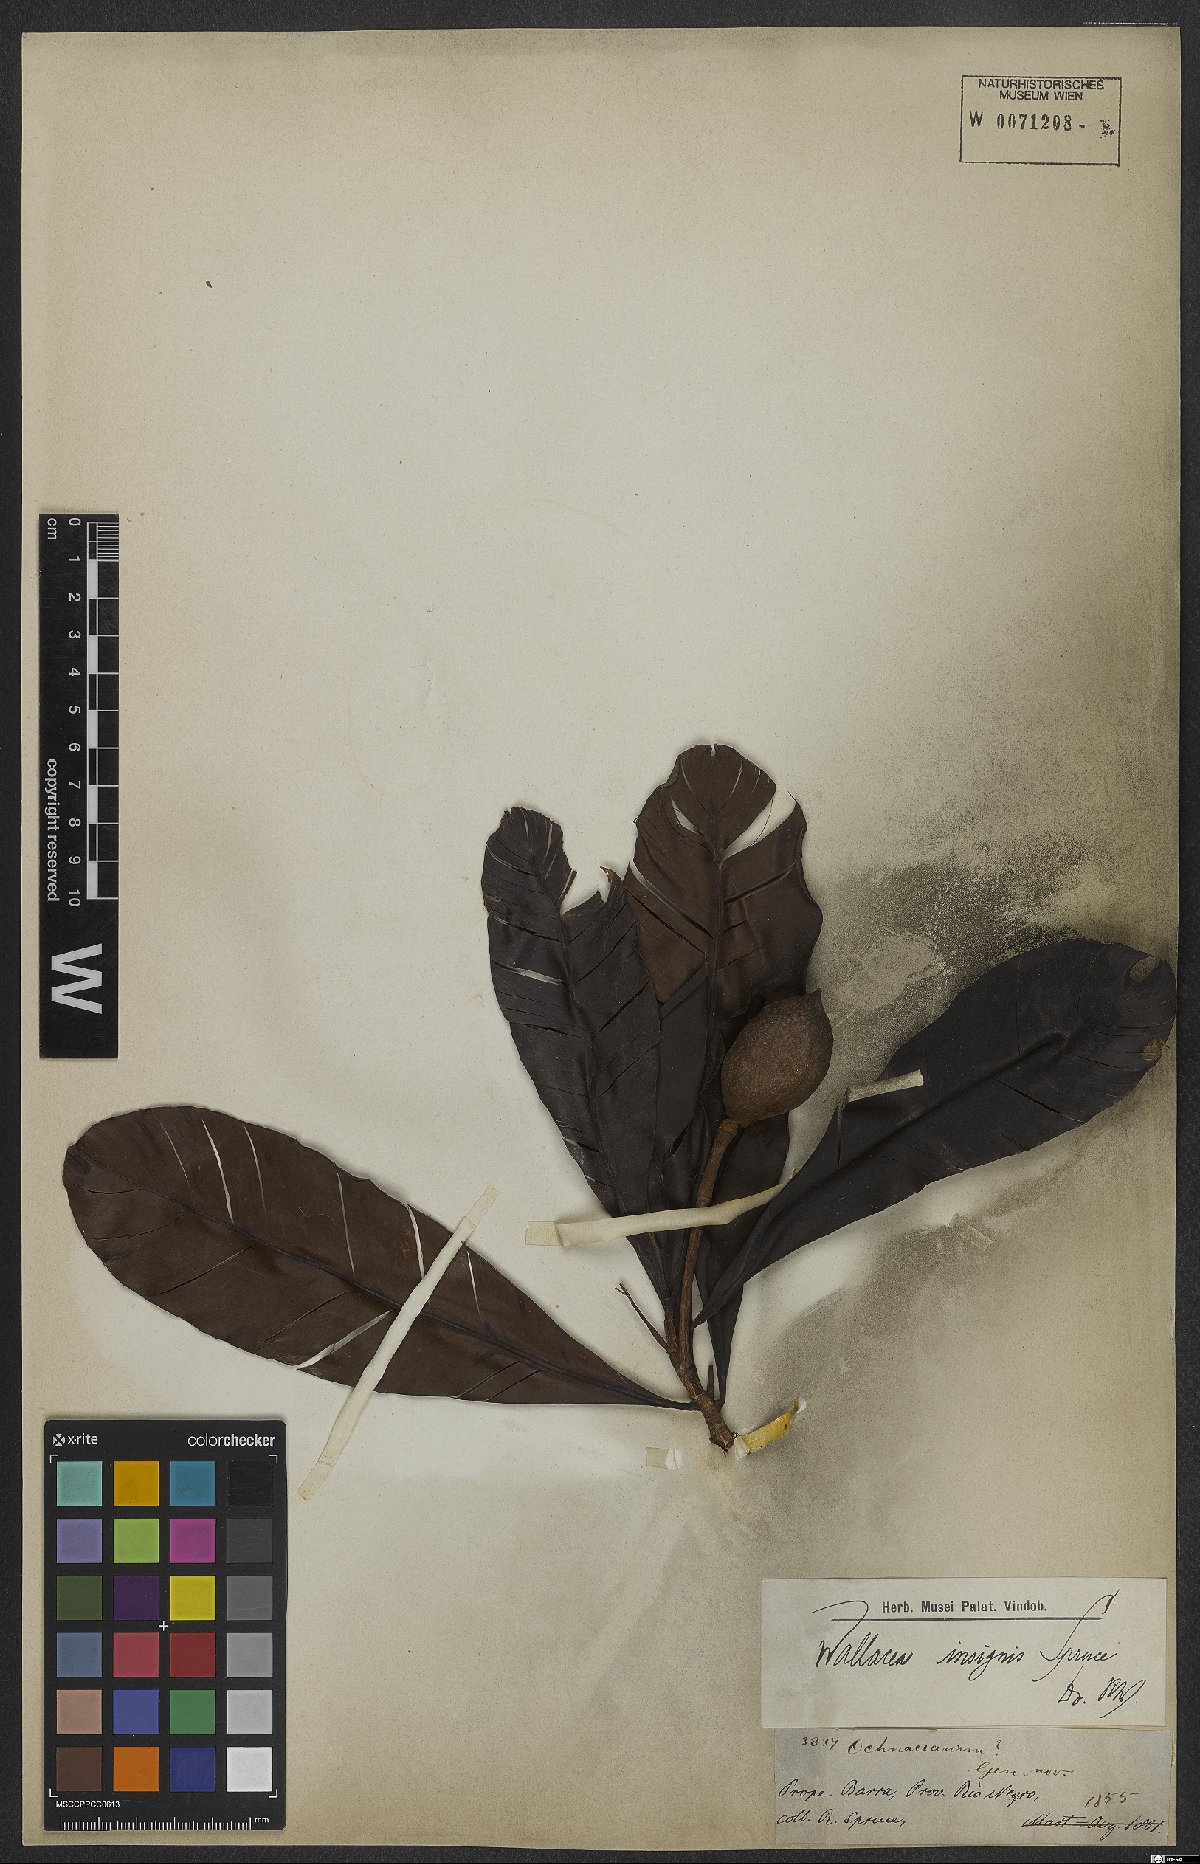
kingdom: Plantae
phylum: Tracheophyta
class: Magnoliopsida
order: Malpighiales
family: Ochnaceae
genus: Wallacea
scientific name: Wallacea insignis
